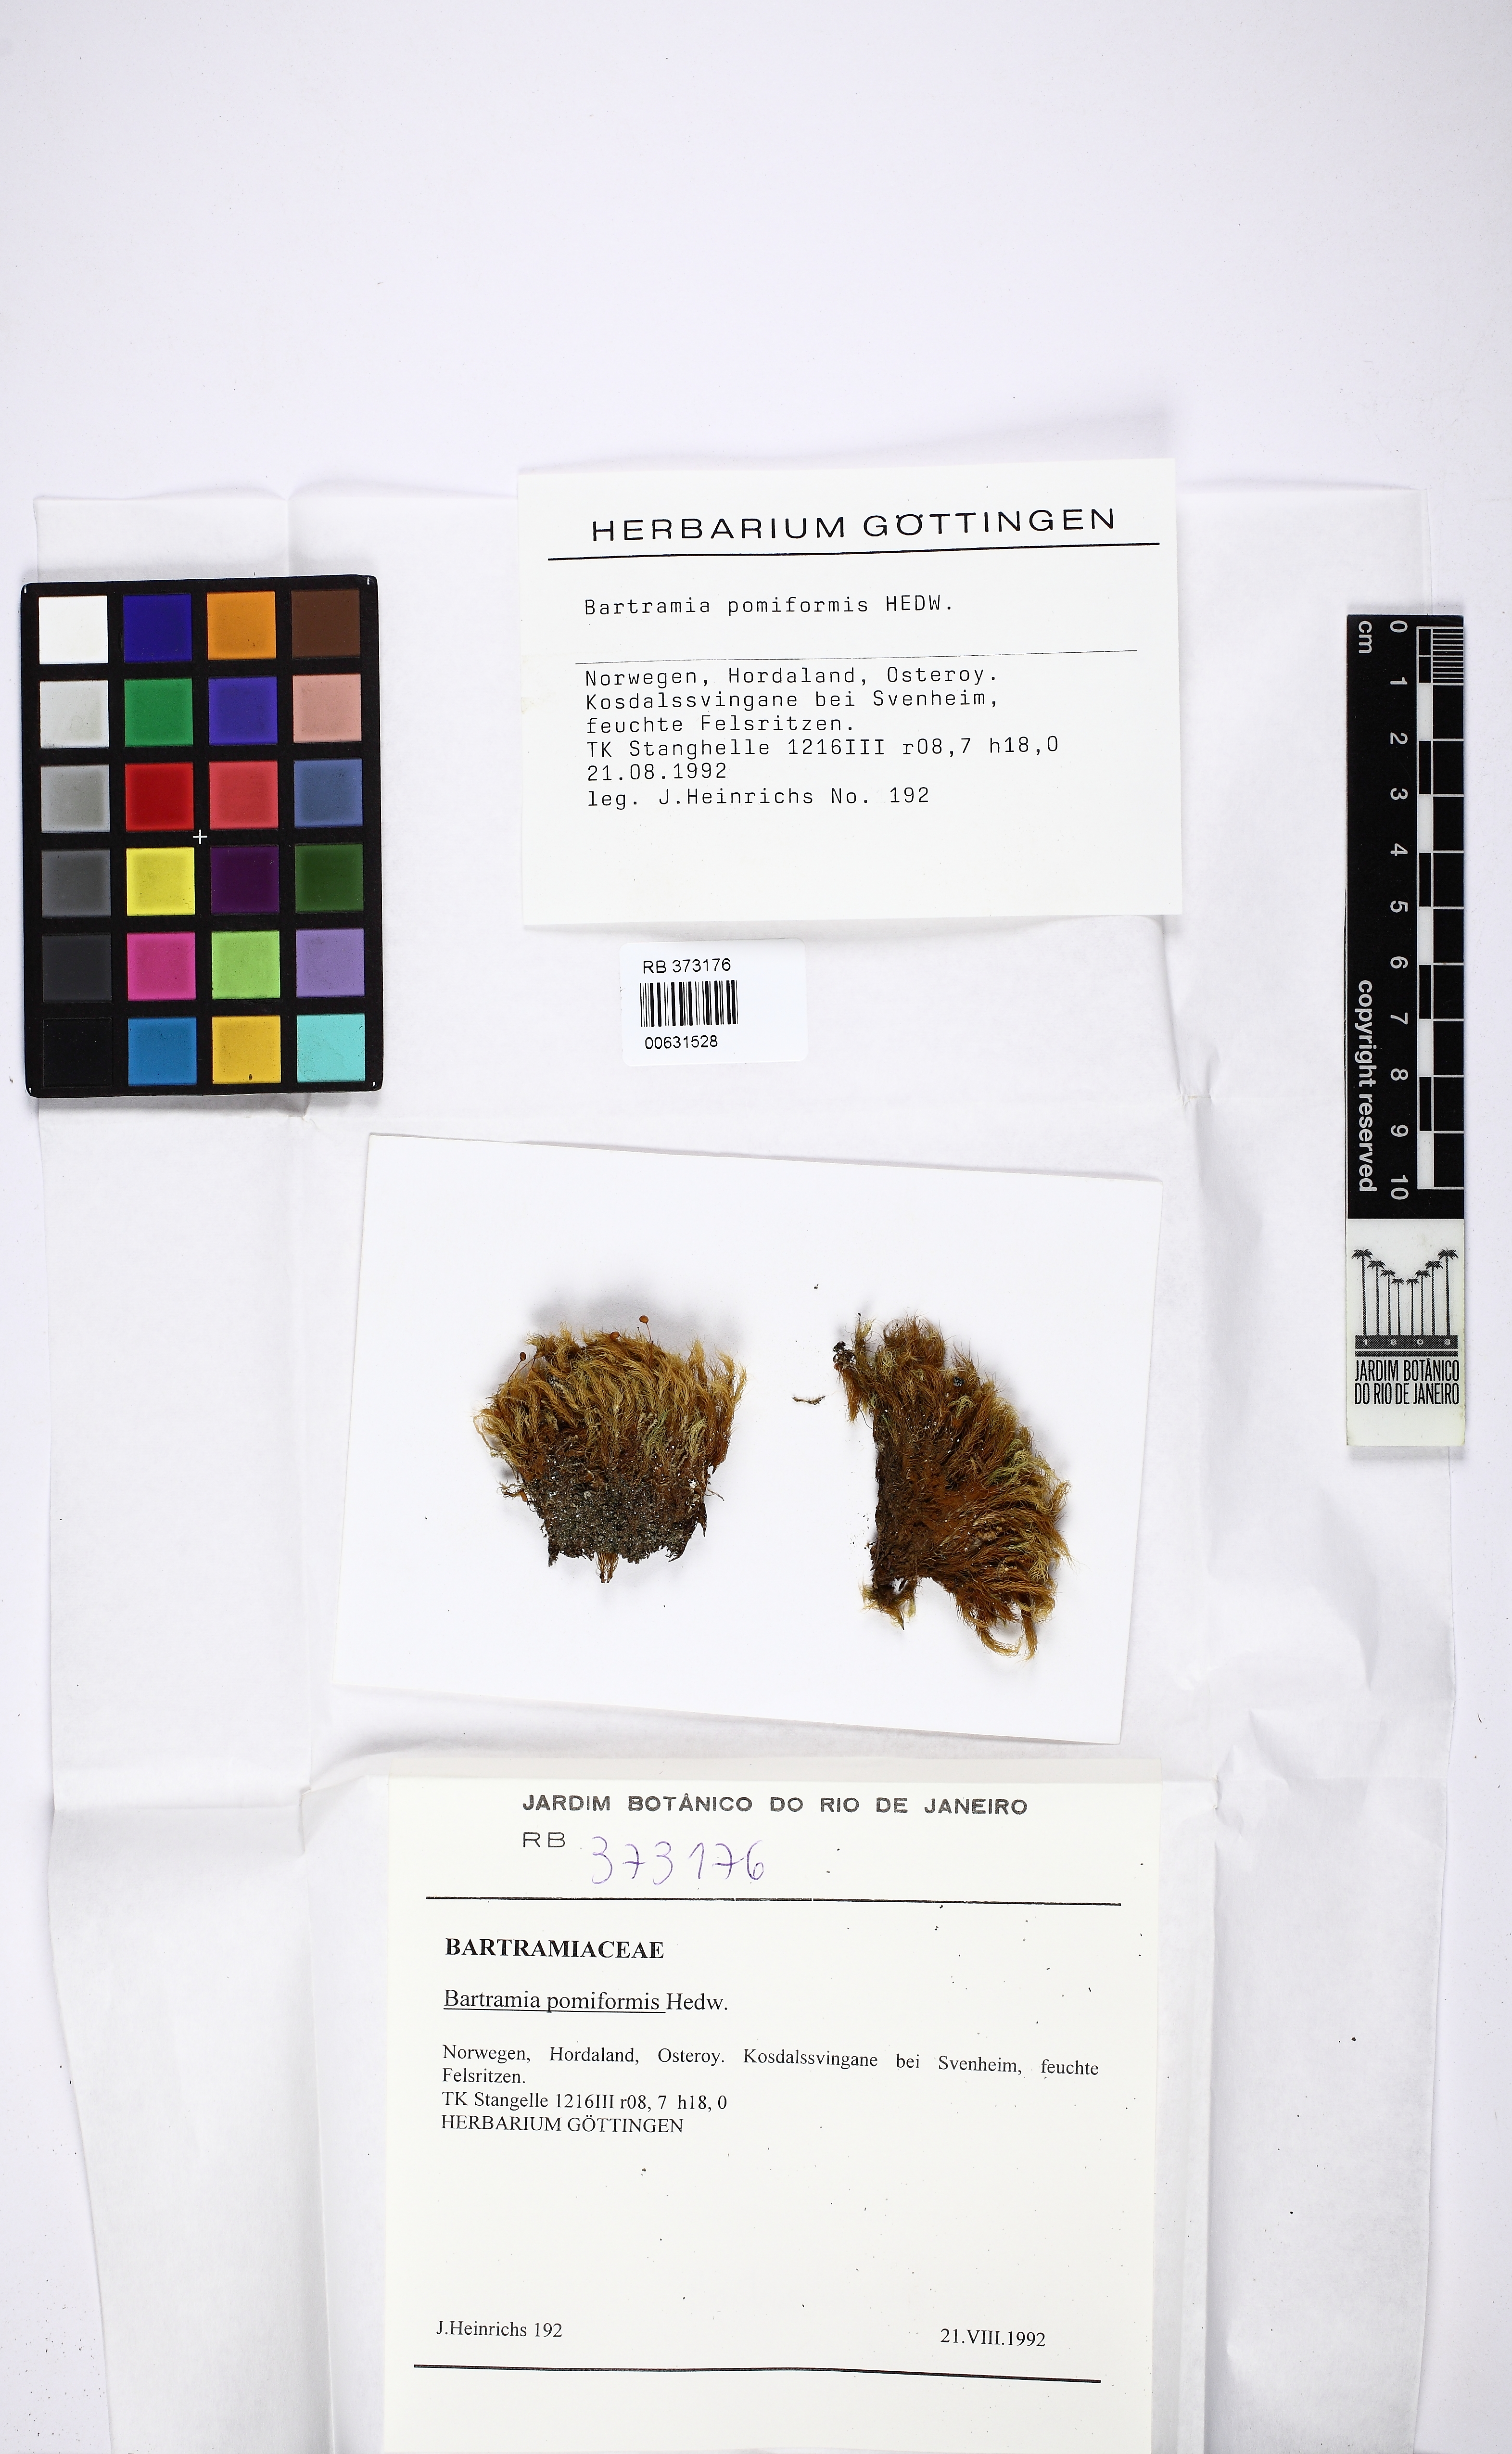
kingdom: Plantae
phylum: Bryophyta
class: Bryopsida
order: Bartramiales
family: Bartramiaceae
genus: Bartramia
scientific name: Bartramia pomiformis
